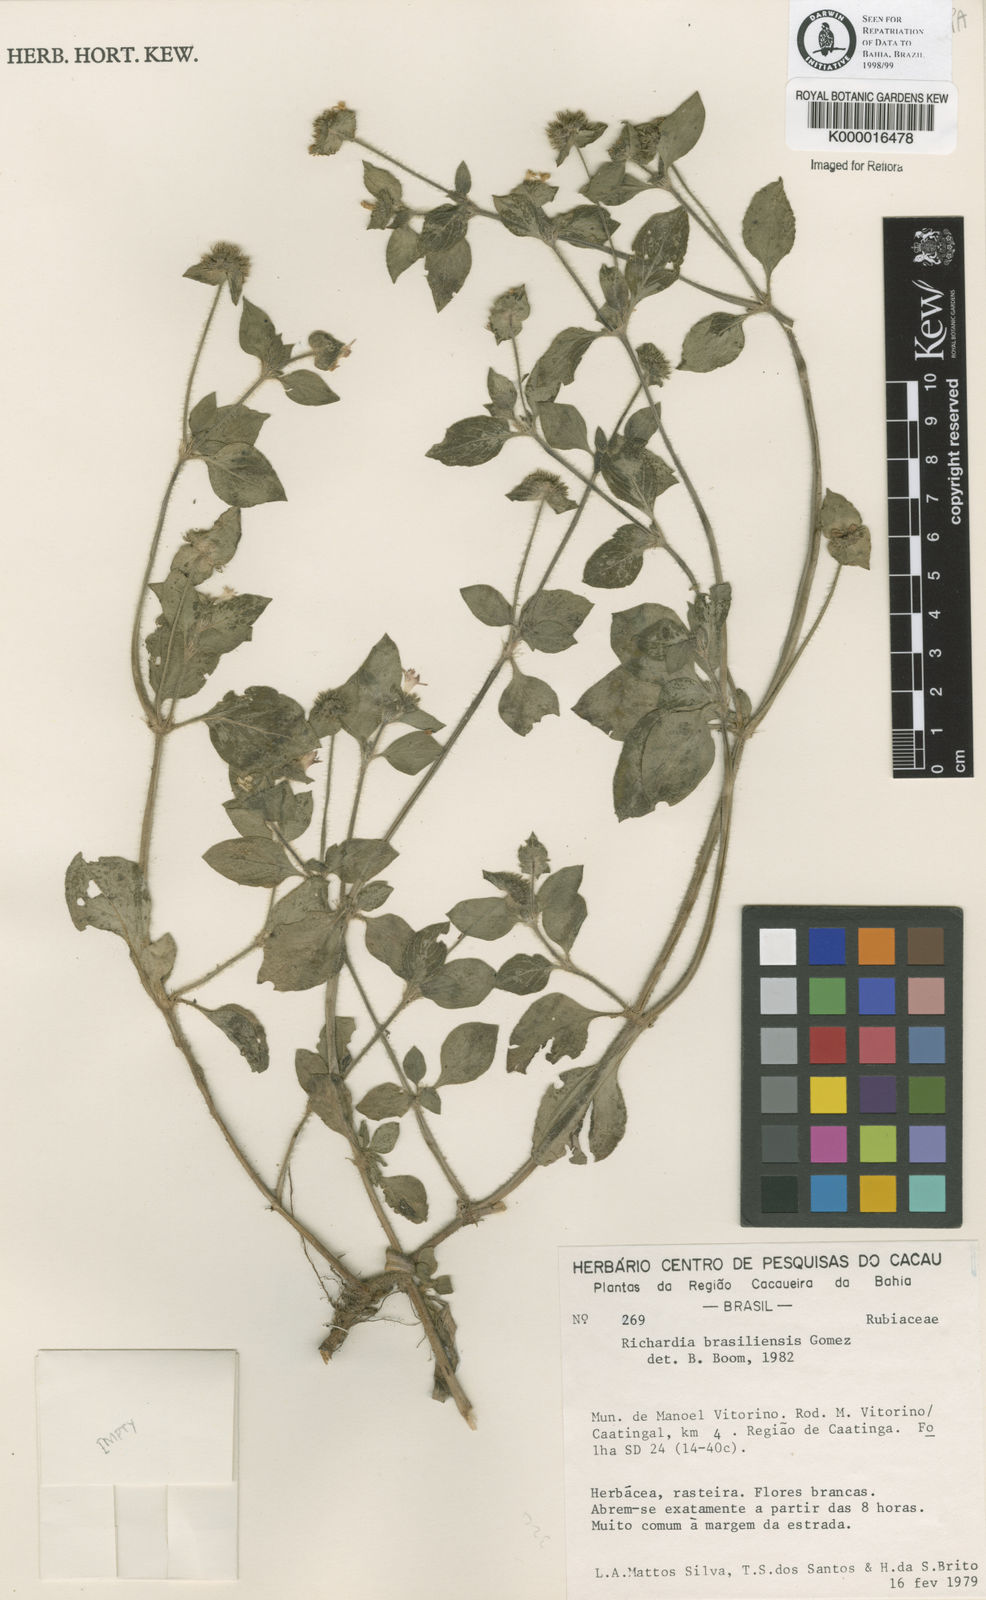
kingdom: Plantae
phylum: Tracheophyta
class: Magnoliopsida
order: Gentianales
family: Rubiaceae
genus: Richardia
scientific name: Richardia brasiliensis
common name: Tropical mexican clover
